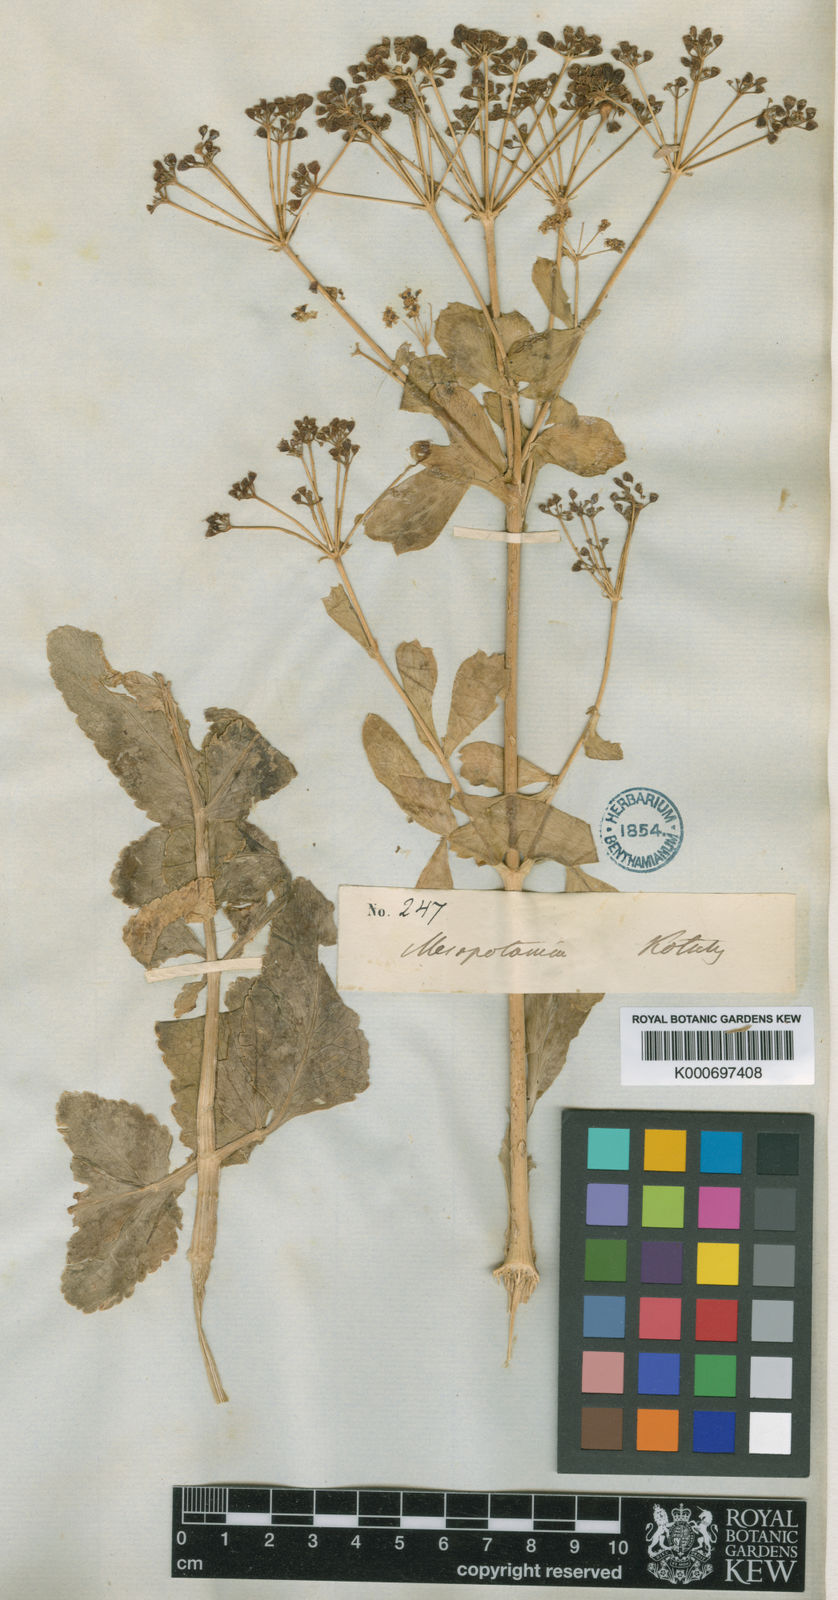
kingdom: Plantae
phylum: Tracheophyta
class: Magnoliopsida
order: Apiales
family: Apiaceae
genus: Petroedmondia
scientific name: Petroedmondia syriaca
